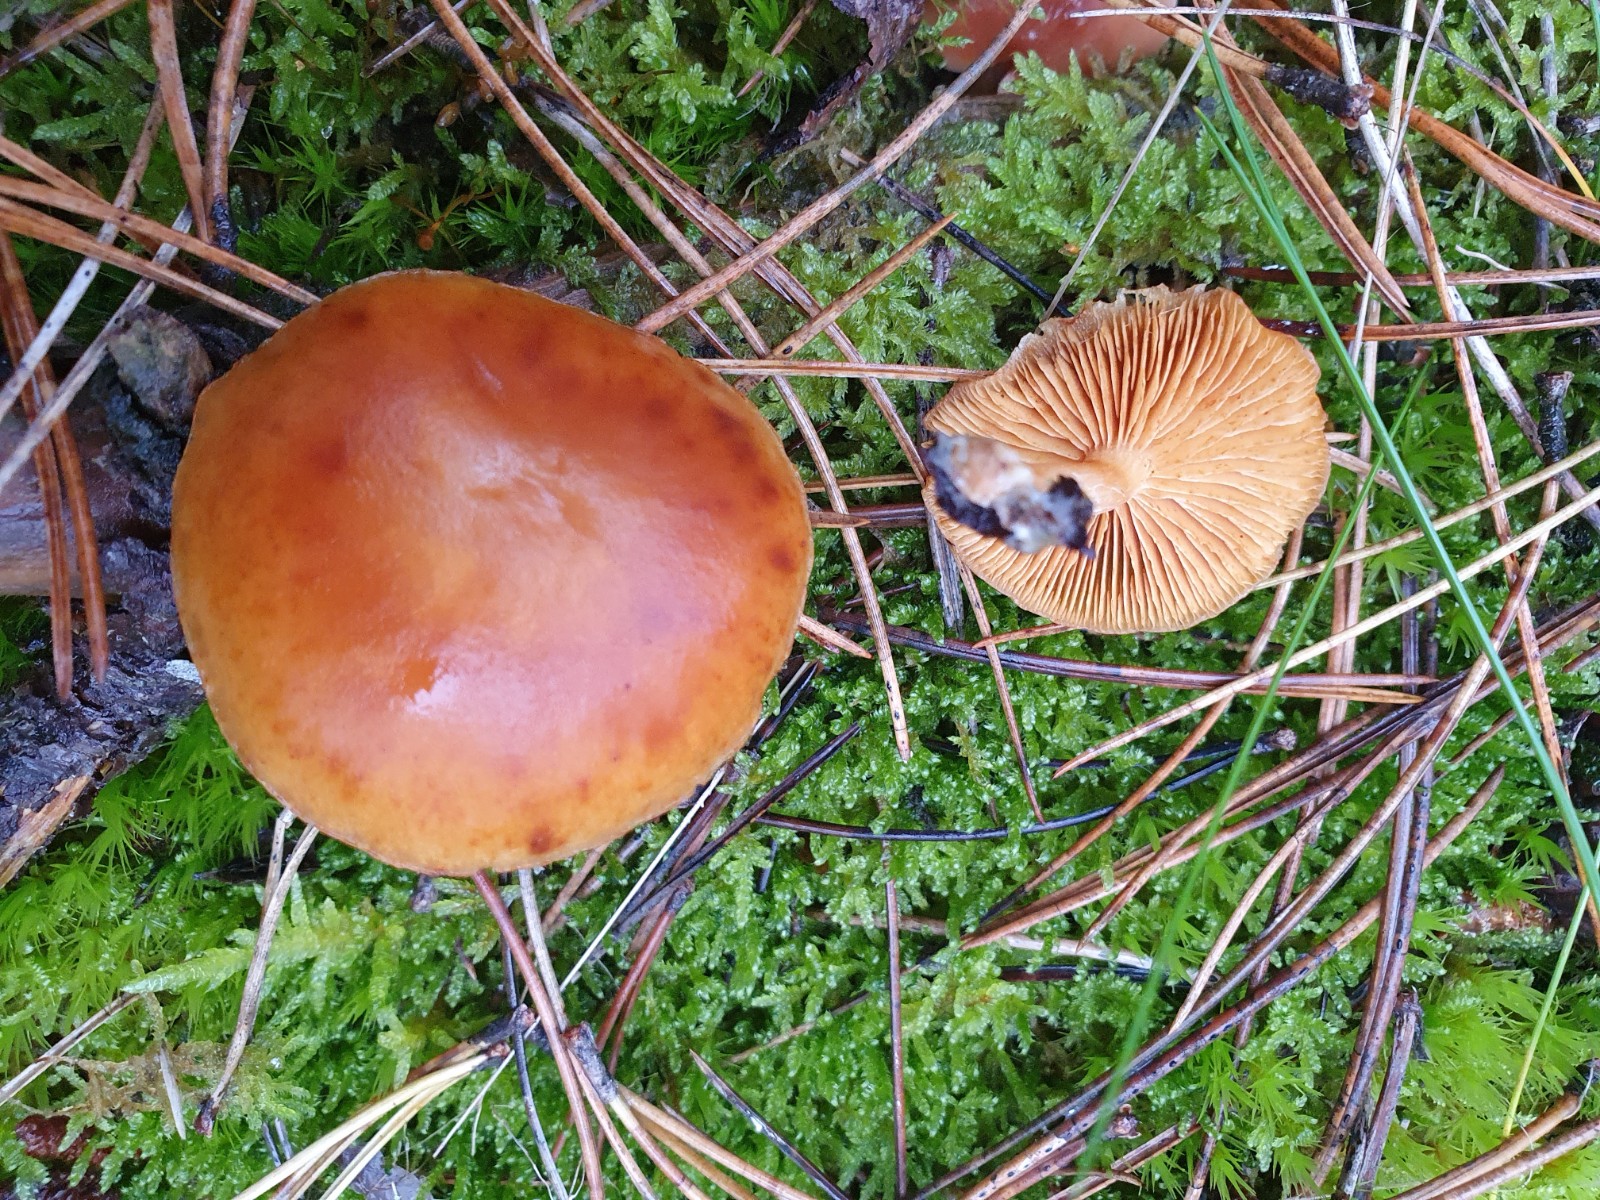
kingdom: Fungi
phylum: Basidiomycota
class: Agaricomycetes
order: Agaricales
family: Hymenogastraceae
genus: Gymnopilus
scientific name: Gymnopilus penetrans
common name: plettet flammehat
